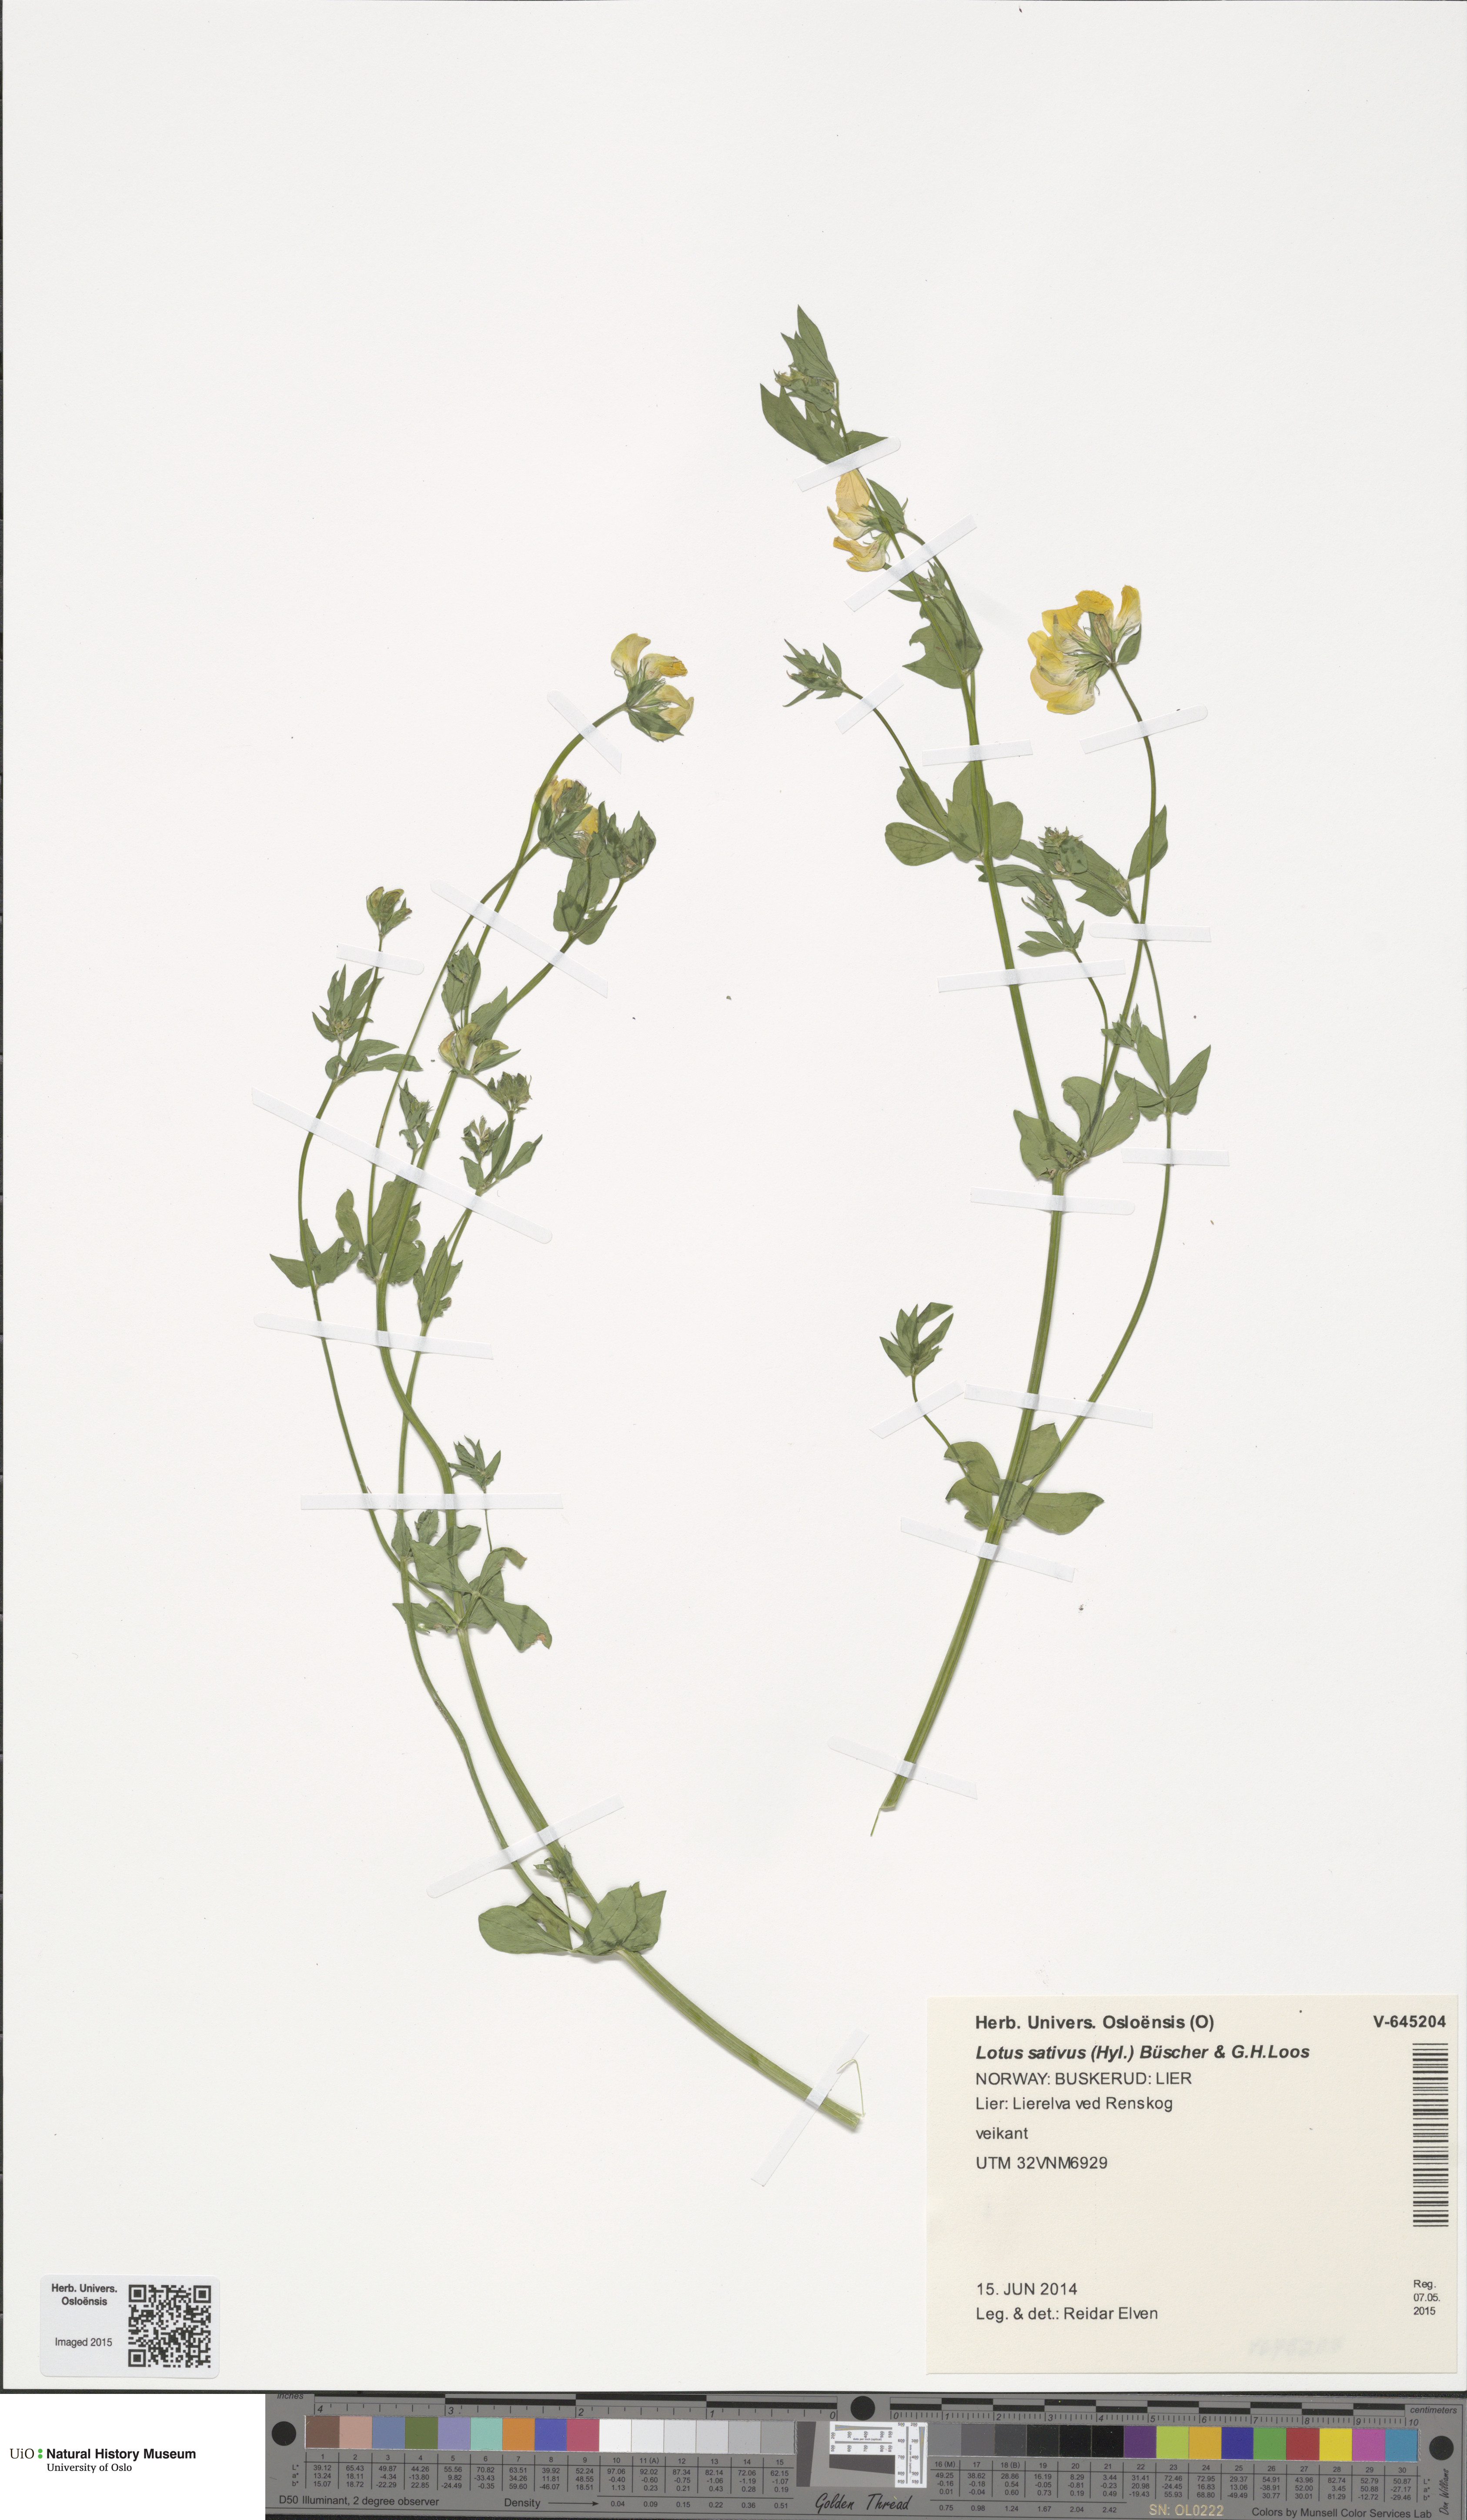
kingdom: Plantae
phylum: Tracheophyta
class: Magnoliopsida
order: Fabales
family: Fabaceae
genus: Lotus
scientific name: Lotus corniculatus
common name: Common bird's-foot-trefoil
